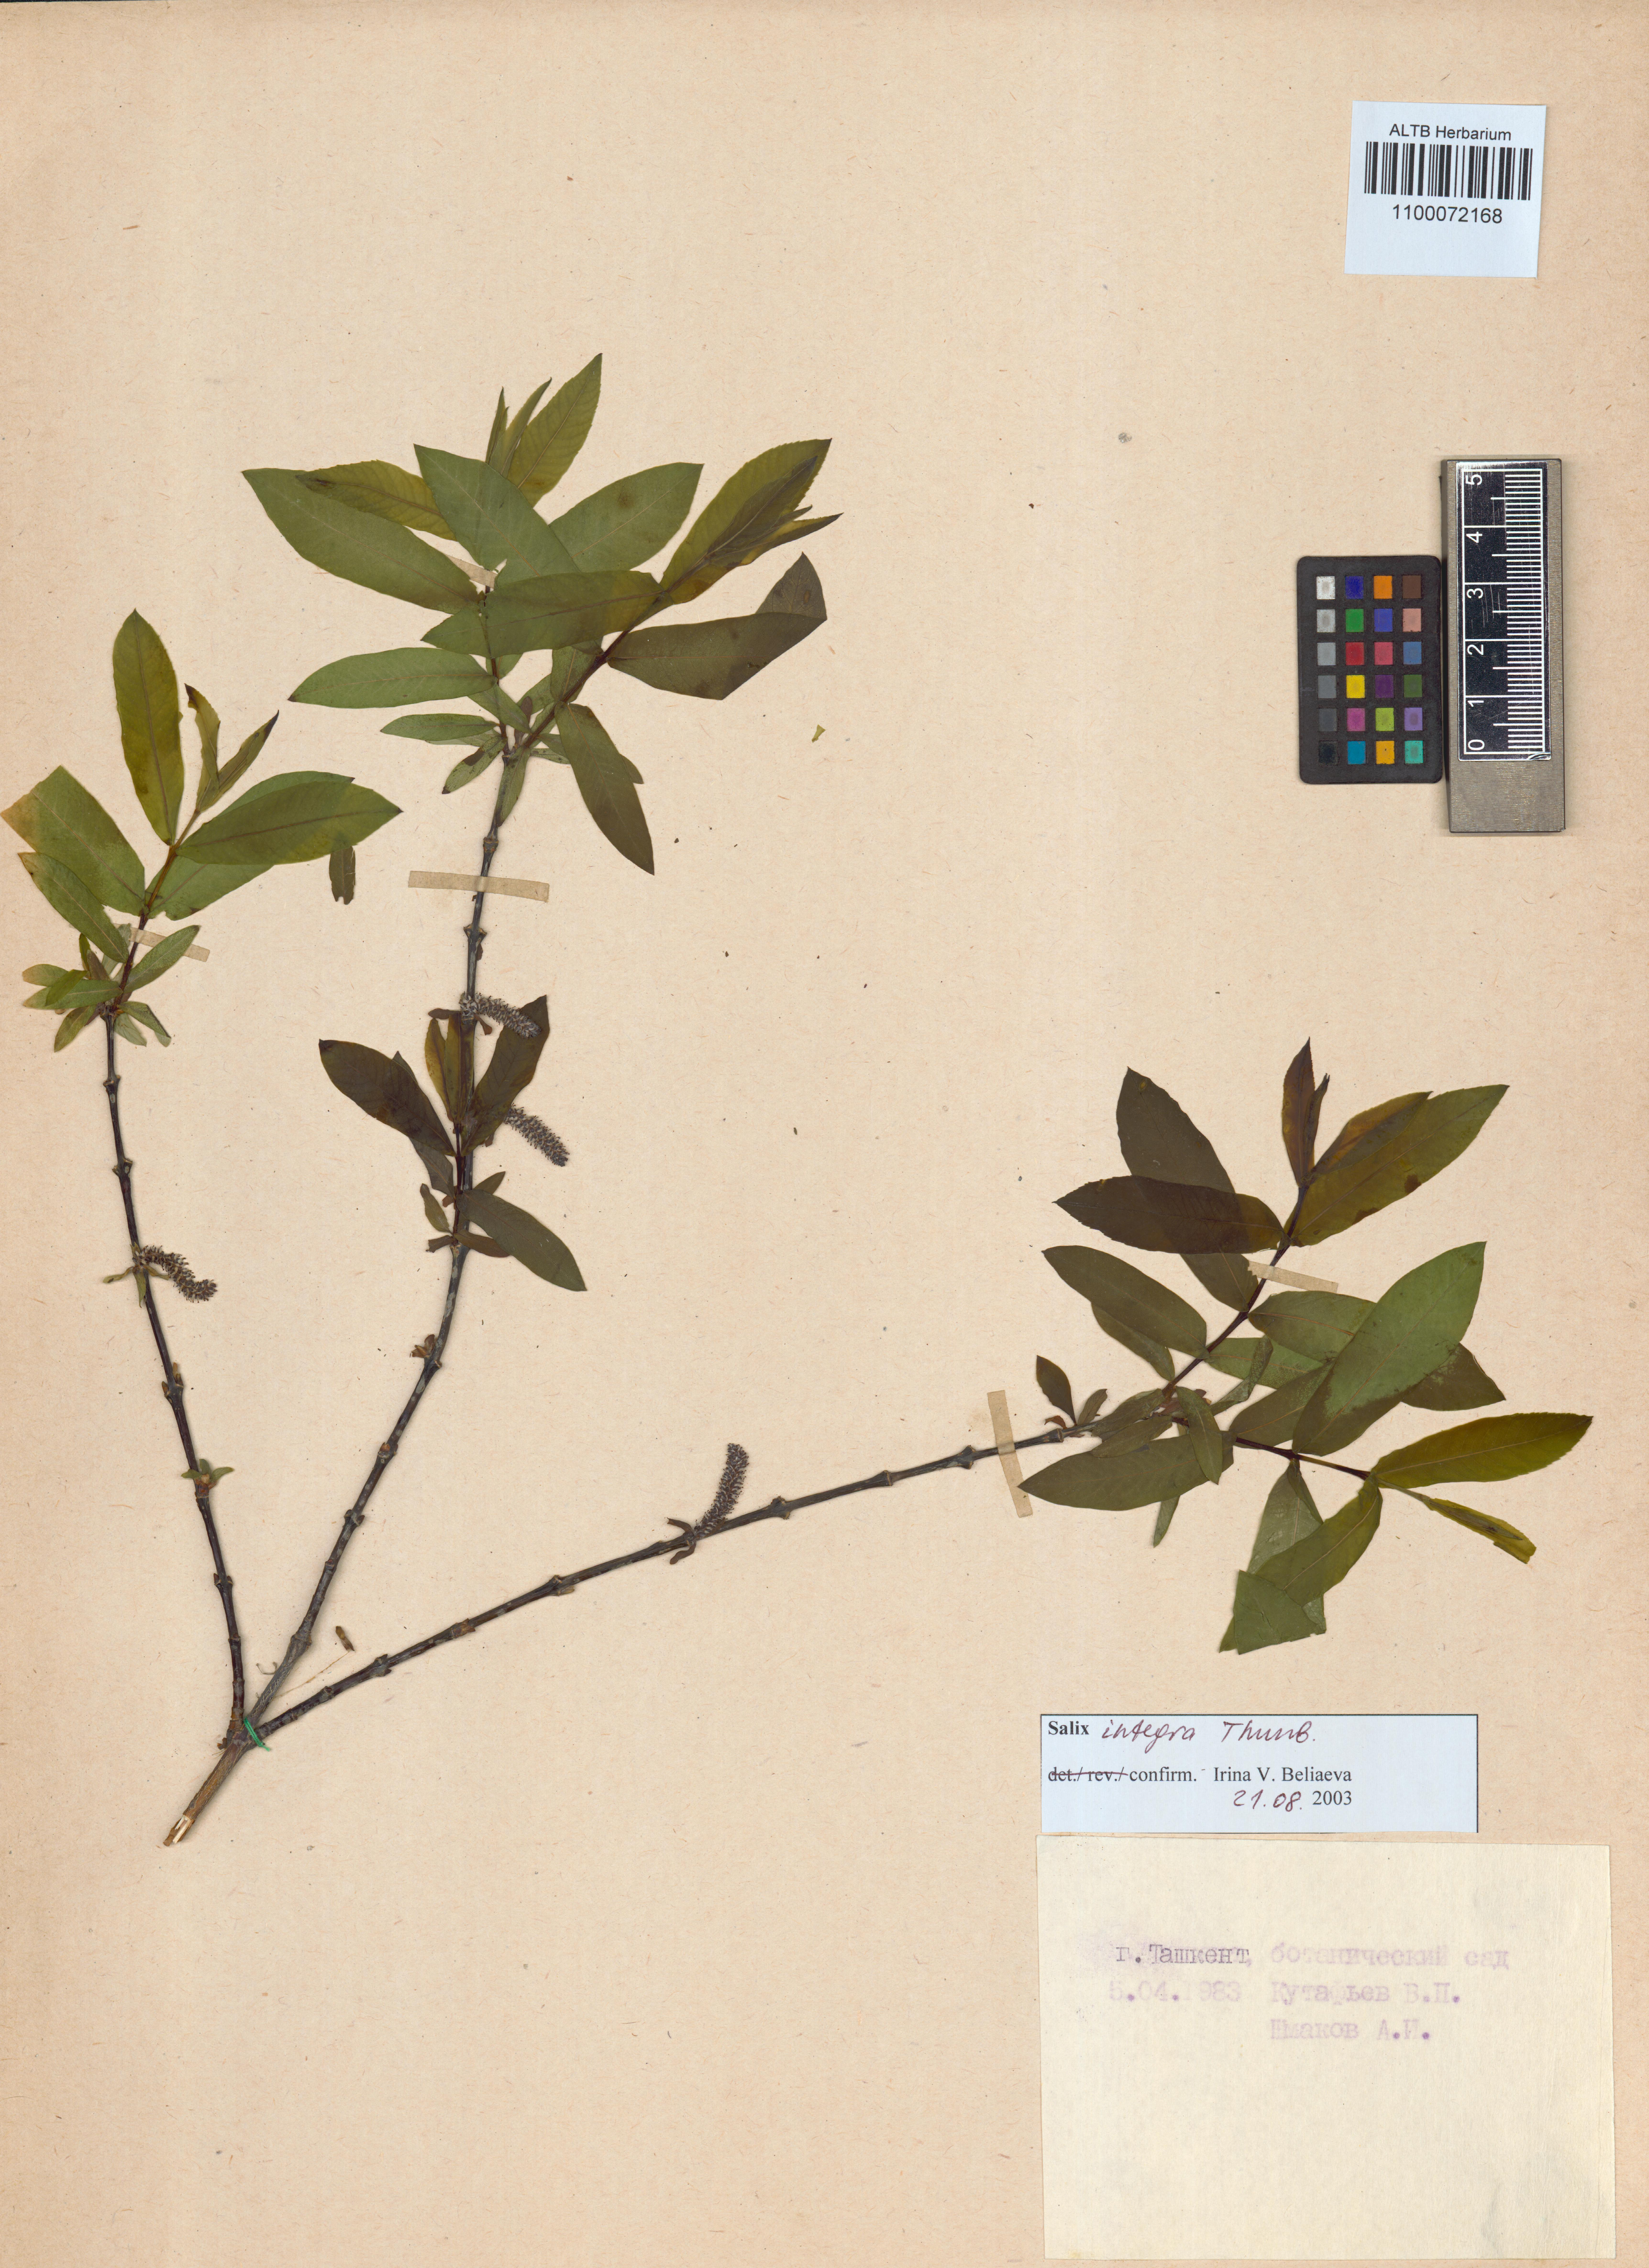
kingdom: Plantae
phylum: Tracheophyta
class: Magnoliopsida
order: Malpighiales
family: Salicaceae
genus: Salix
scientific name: Salix integra
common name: Dappled willow
